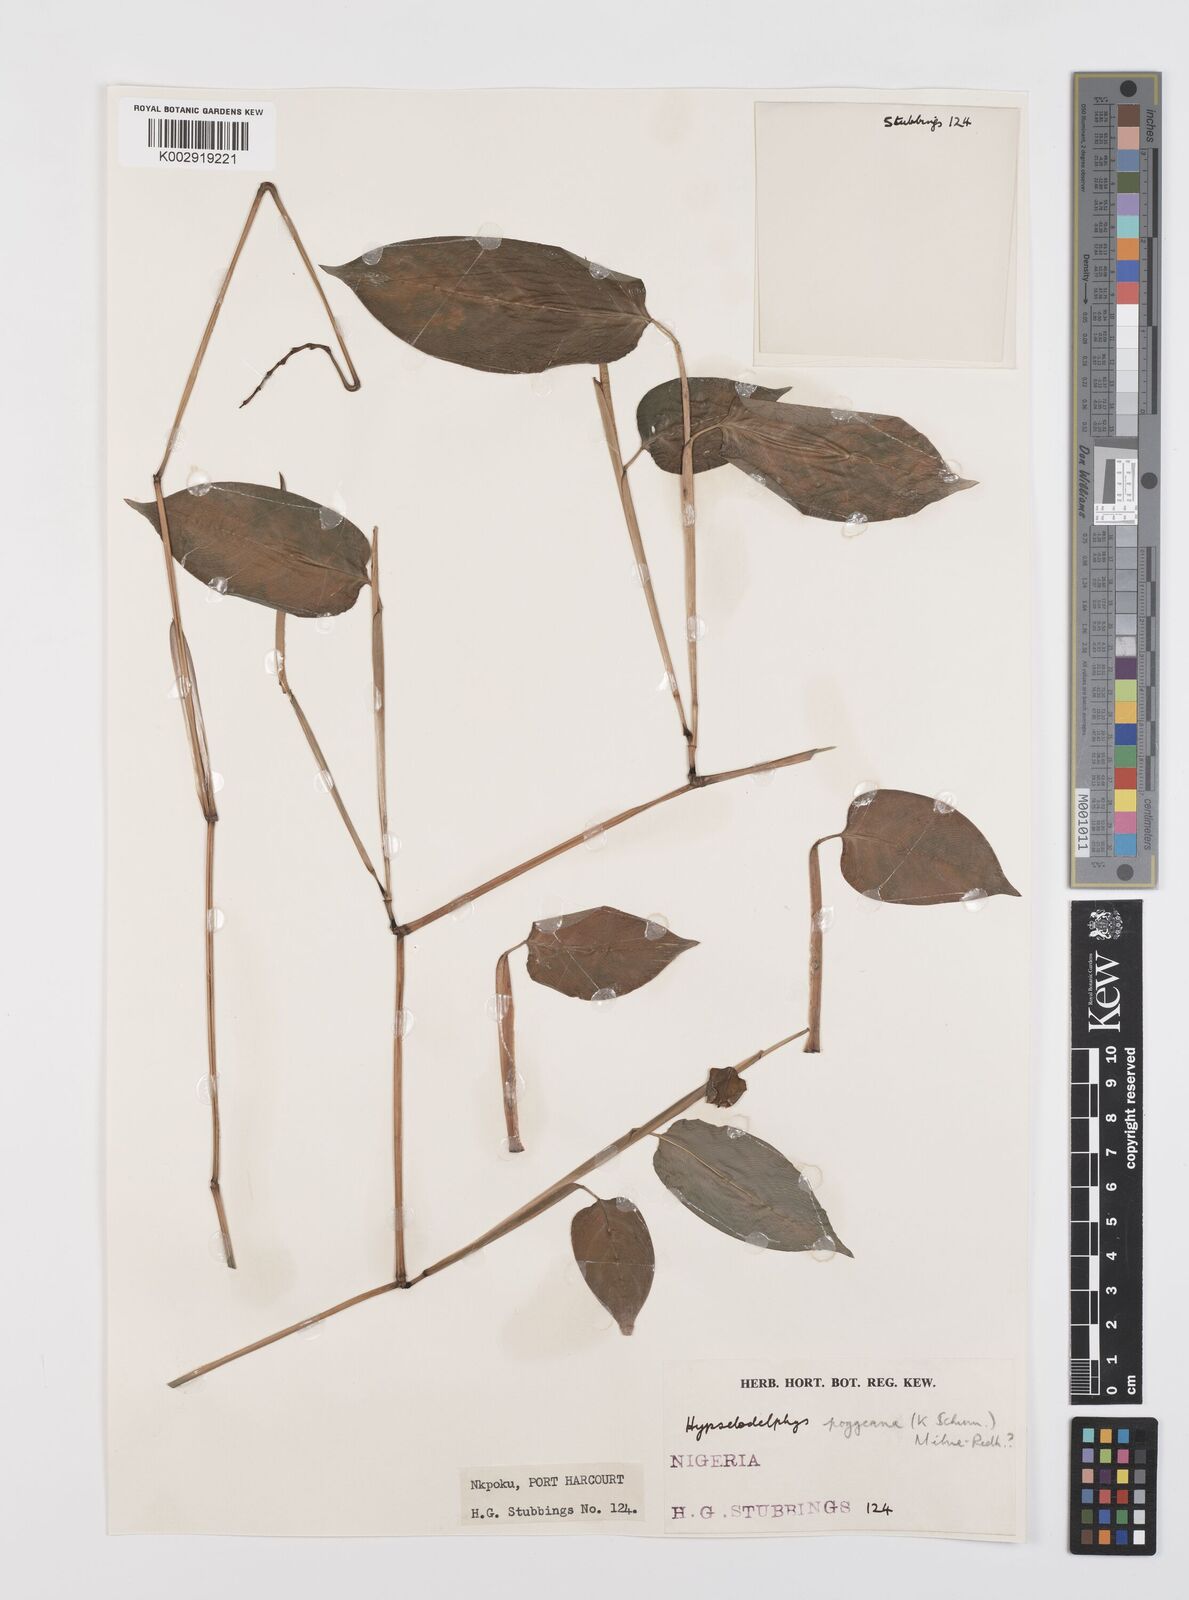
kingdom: Plantae
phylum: Tracheophyta
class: Liliopsida
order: Zingiberales
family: Marantaceae
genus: Hypselodelphys
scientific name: Hypselodelphys poggeana
